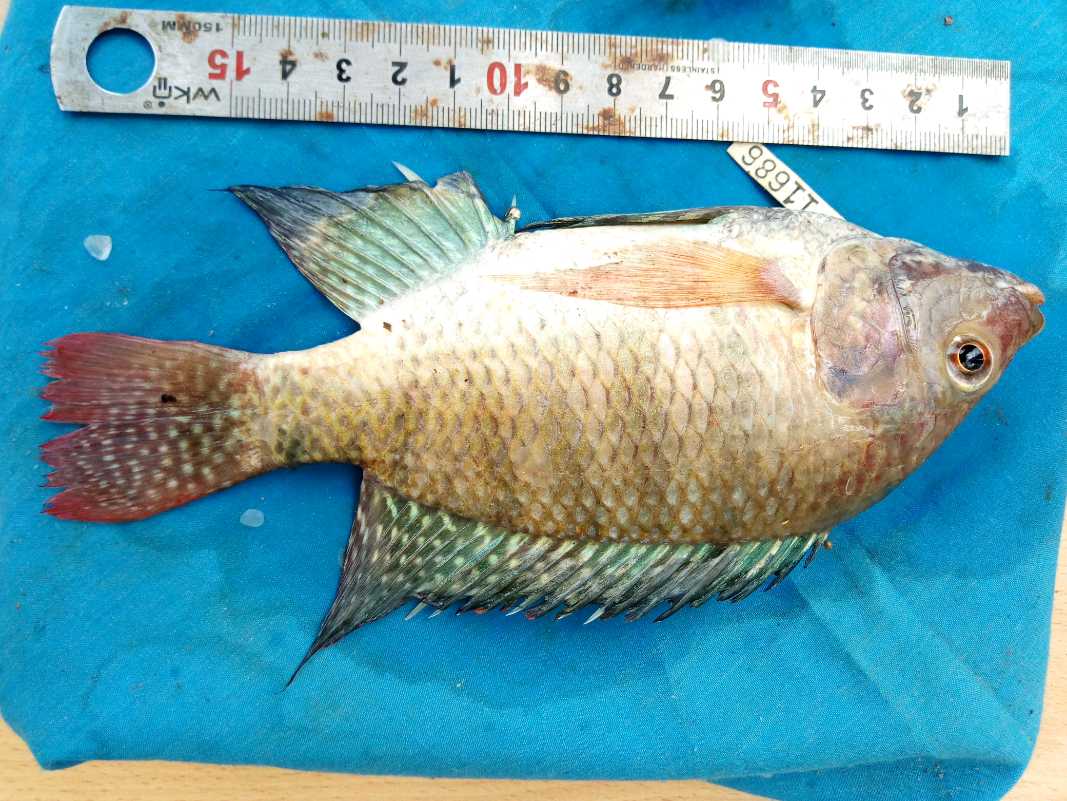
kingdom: Animalia
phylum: Chordata
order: Perciformes
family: Cichlidae
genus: Oreochromis
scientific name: Oreochromis spilurus
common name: Sabaki tilapia
